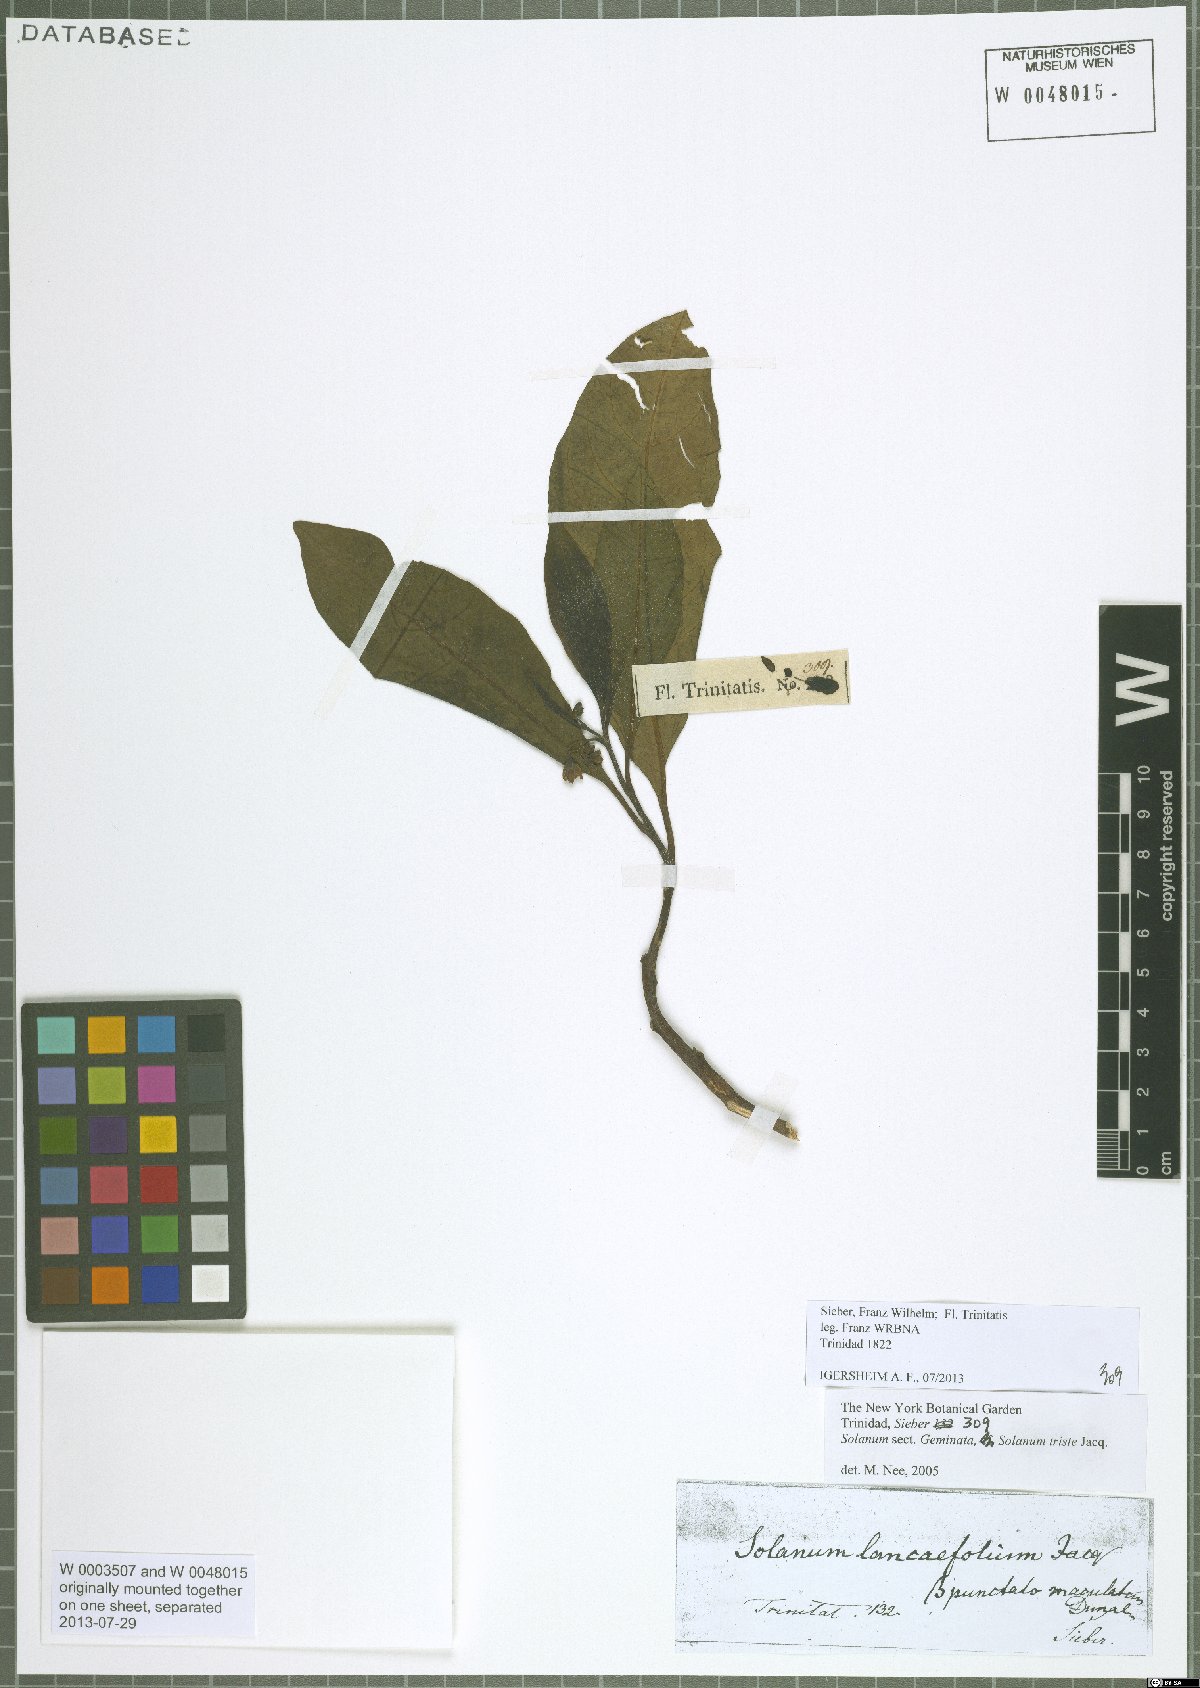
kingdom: Plantae
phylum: Tracheophyta
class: Magnoliopsida
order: Solanales
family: Solanaceae
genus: Solanum
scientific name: Solanum triste
